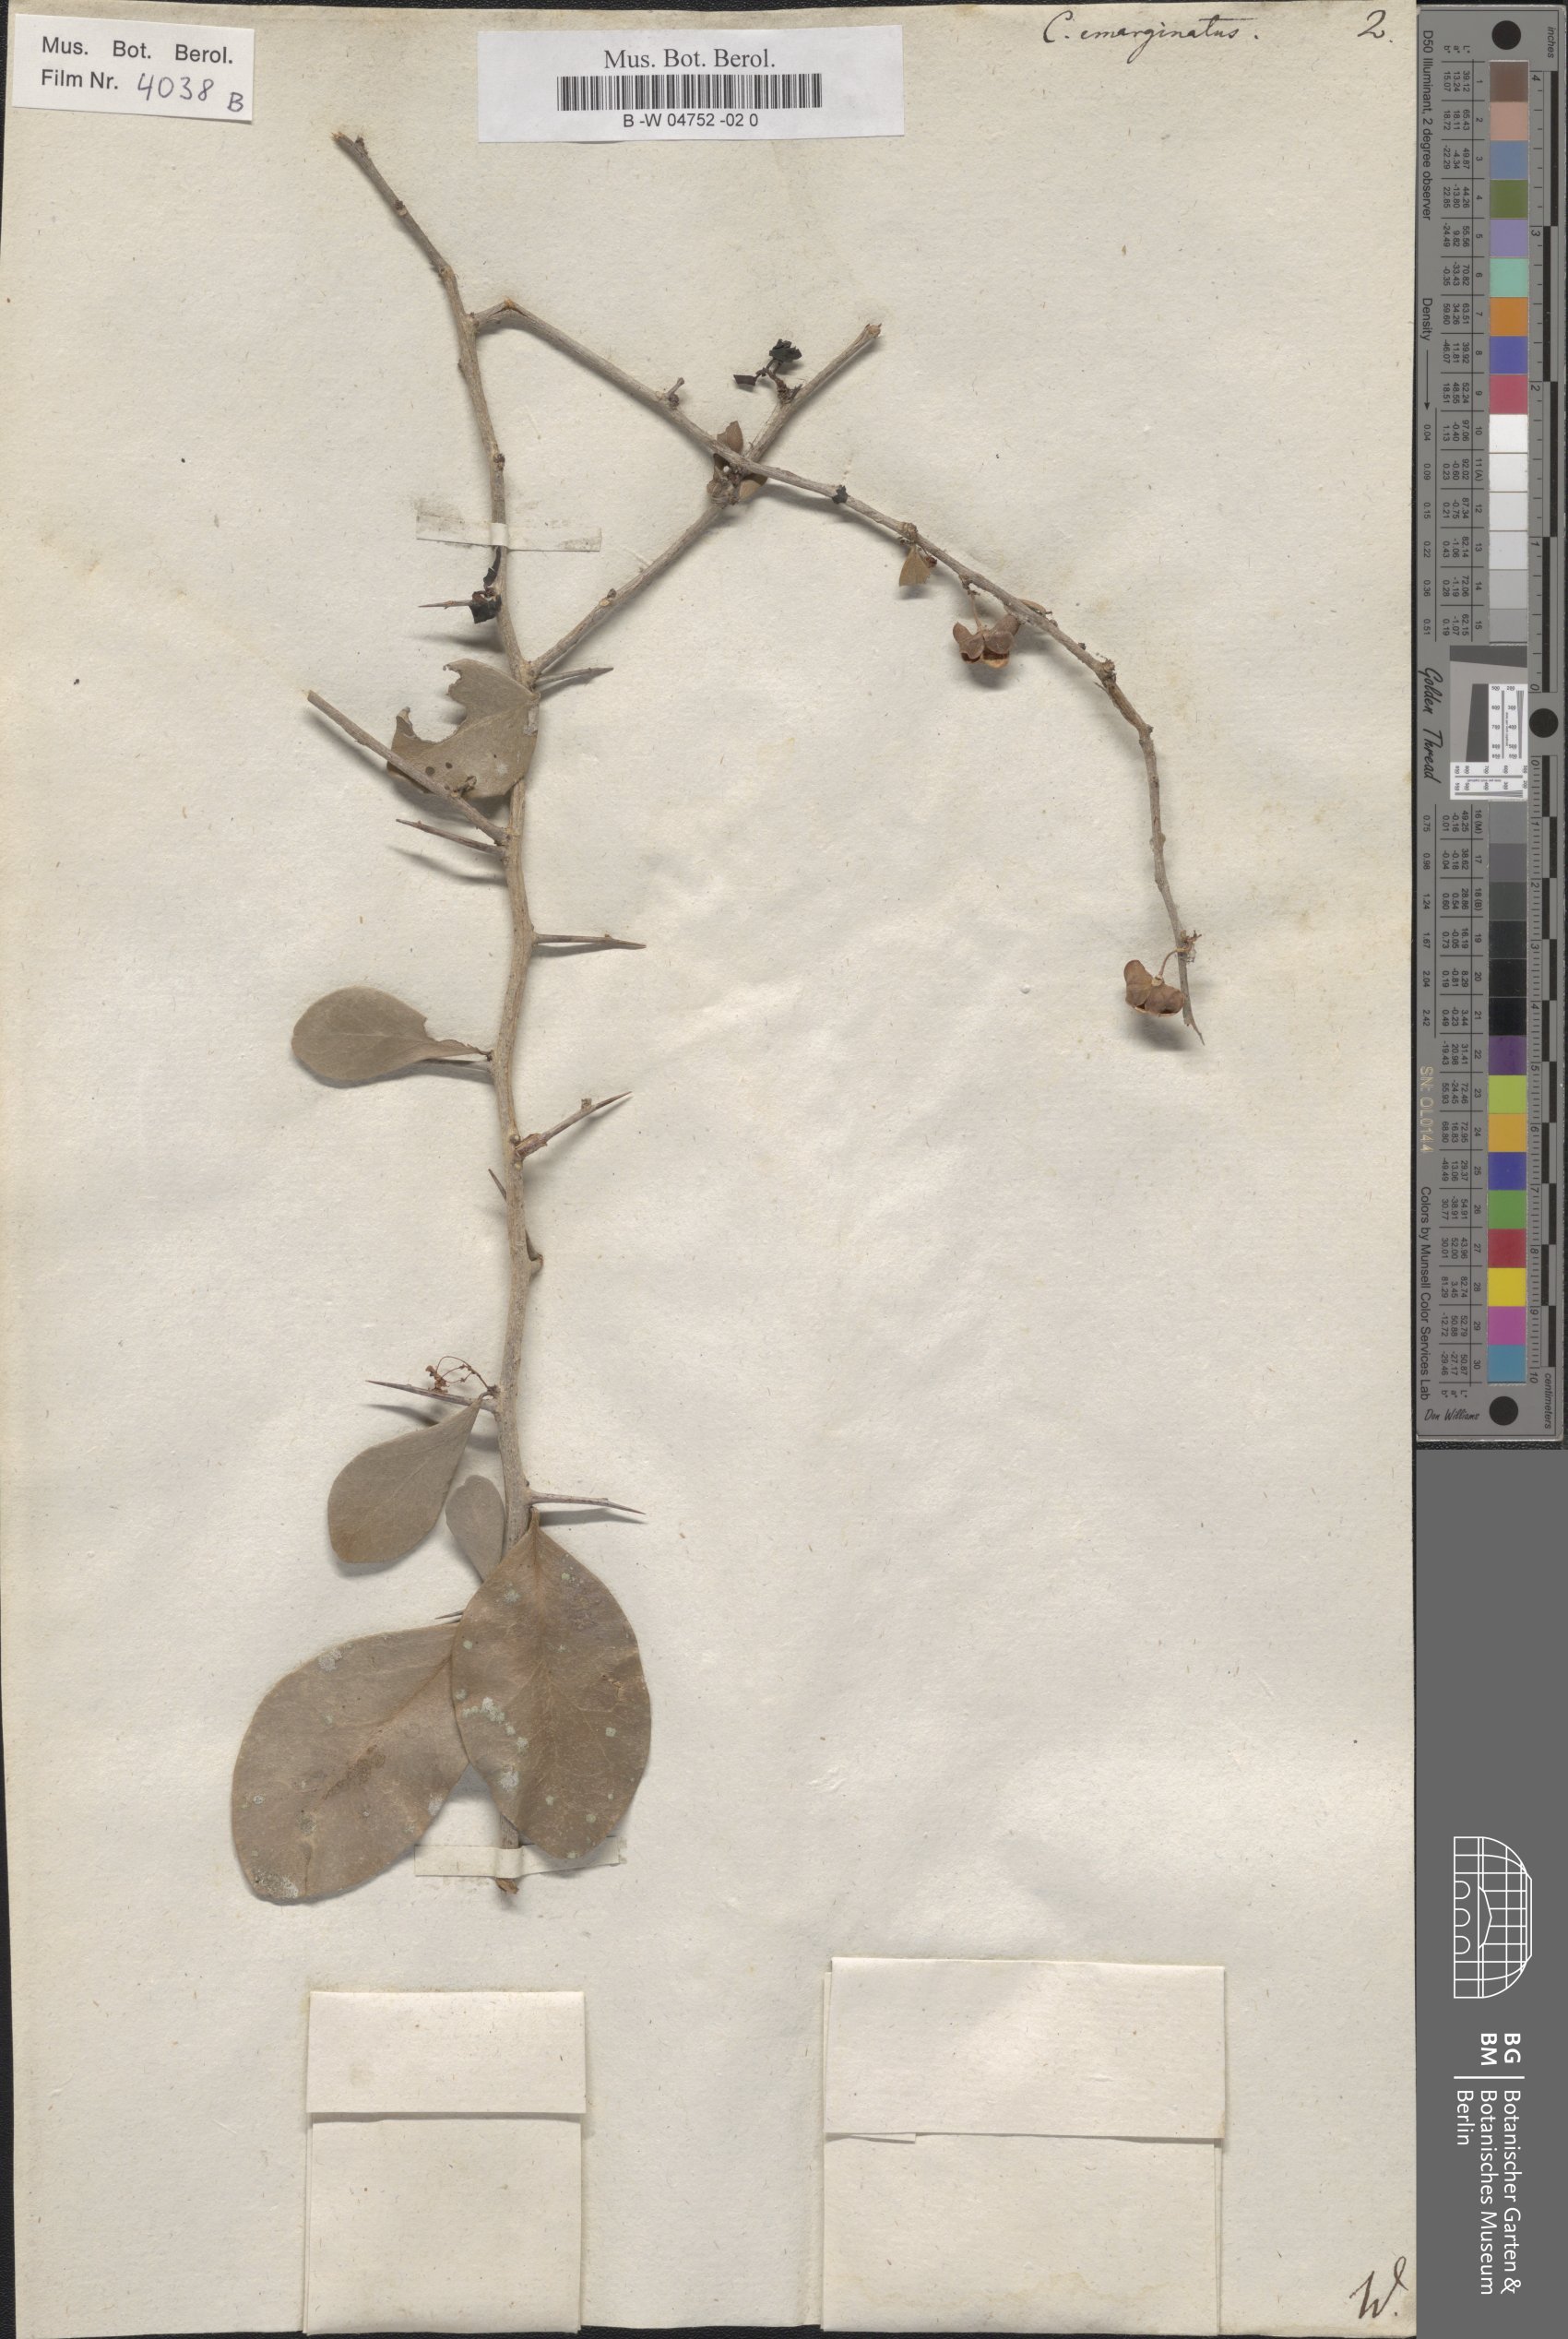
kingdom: Plantae
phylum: Tracheophyta
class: Magnoliopsida
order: Celastrales
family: Celastraceae
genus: Gymnosporia
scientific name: Gymnosporia emarginata
